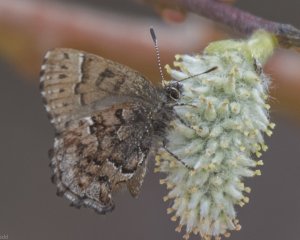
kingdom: Animalia
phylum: Arthropoda
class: Insecta
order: Lepidoptera
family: Lycaenidae
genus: Incisalia
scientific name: Incisalia lanoraieensis
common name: Bog Elfin
